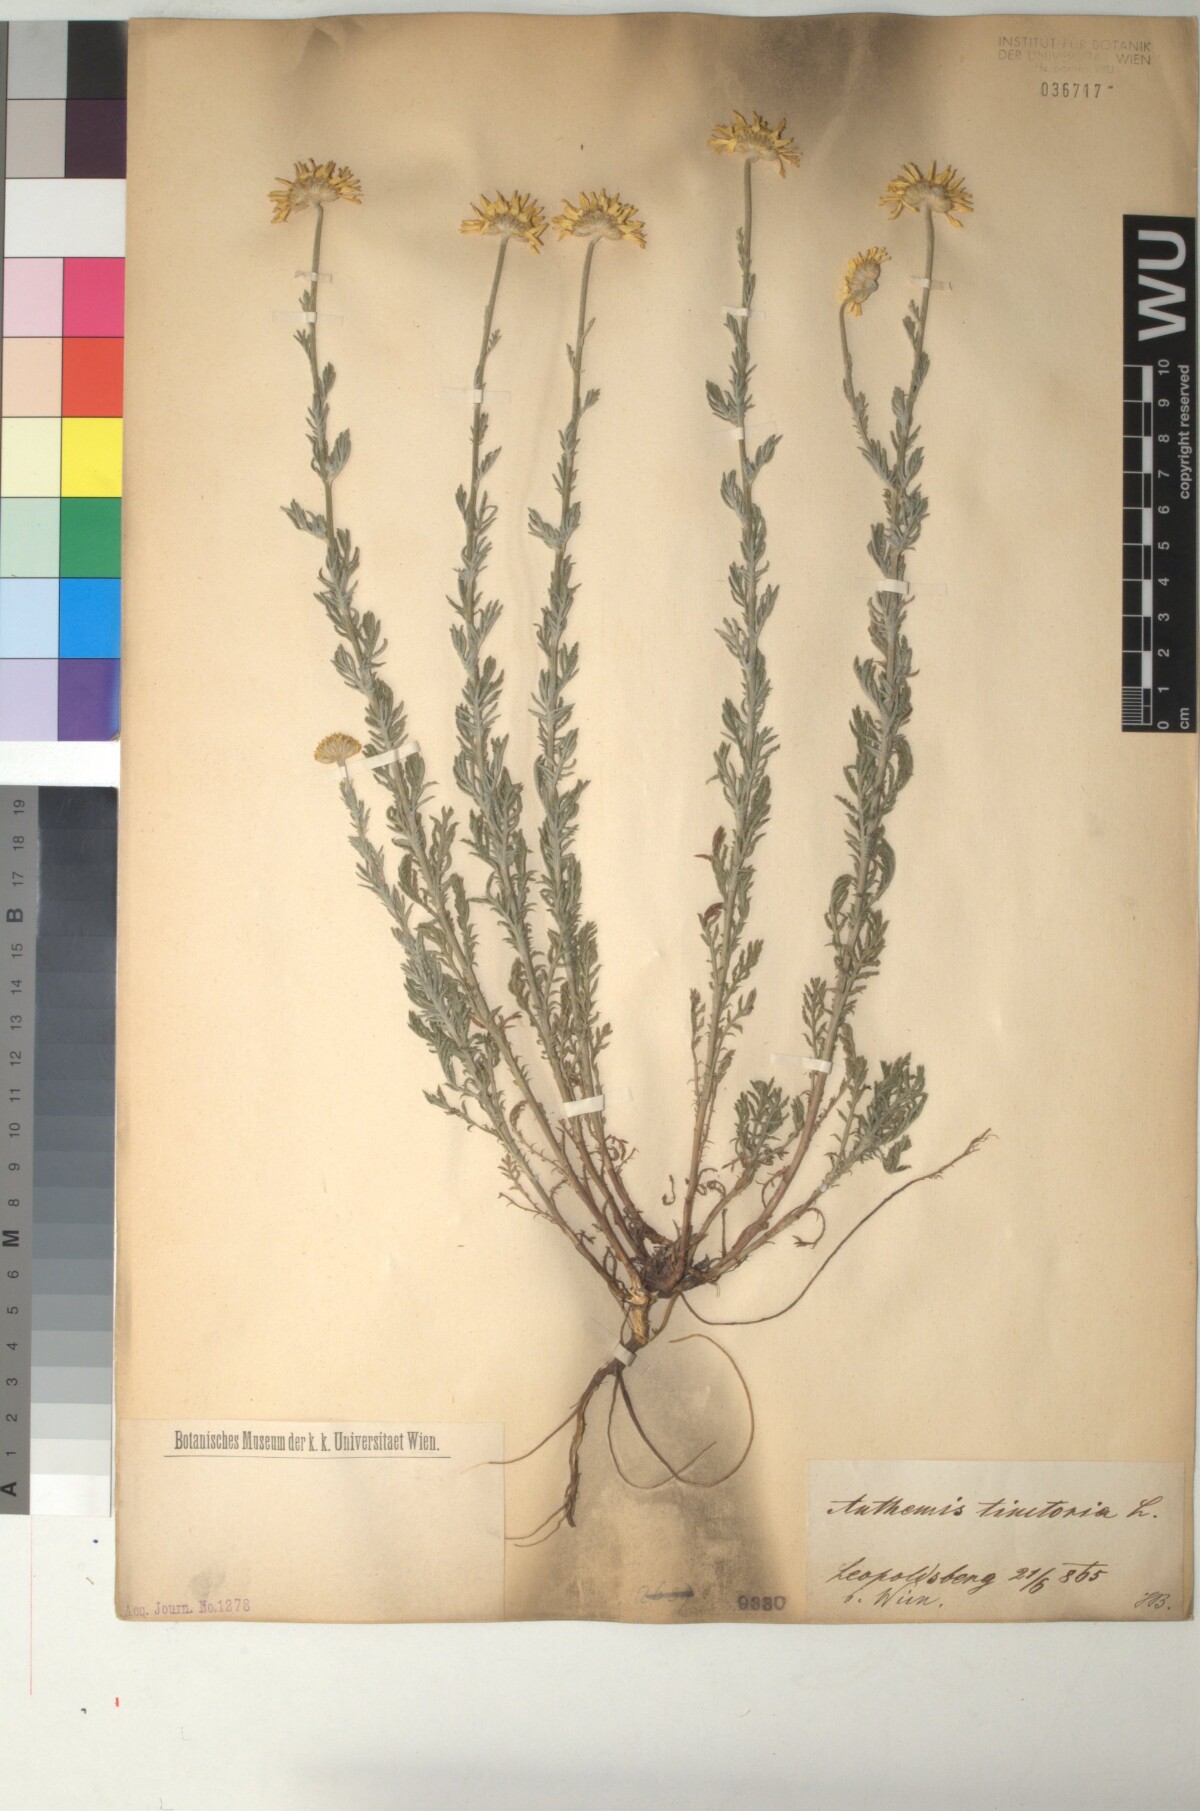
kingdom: Plantae
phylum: Tracheophyta
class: Magnoliopsida
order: Asterales
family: Asteraceae
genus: Cota
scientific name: Cota tinctoria
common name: Golden chamomile
